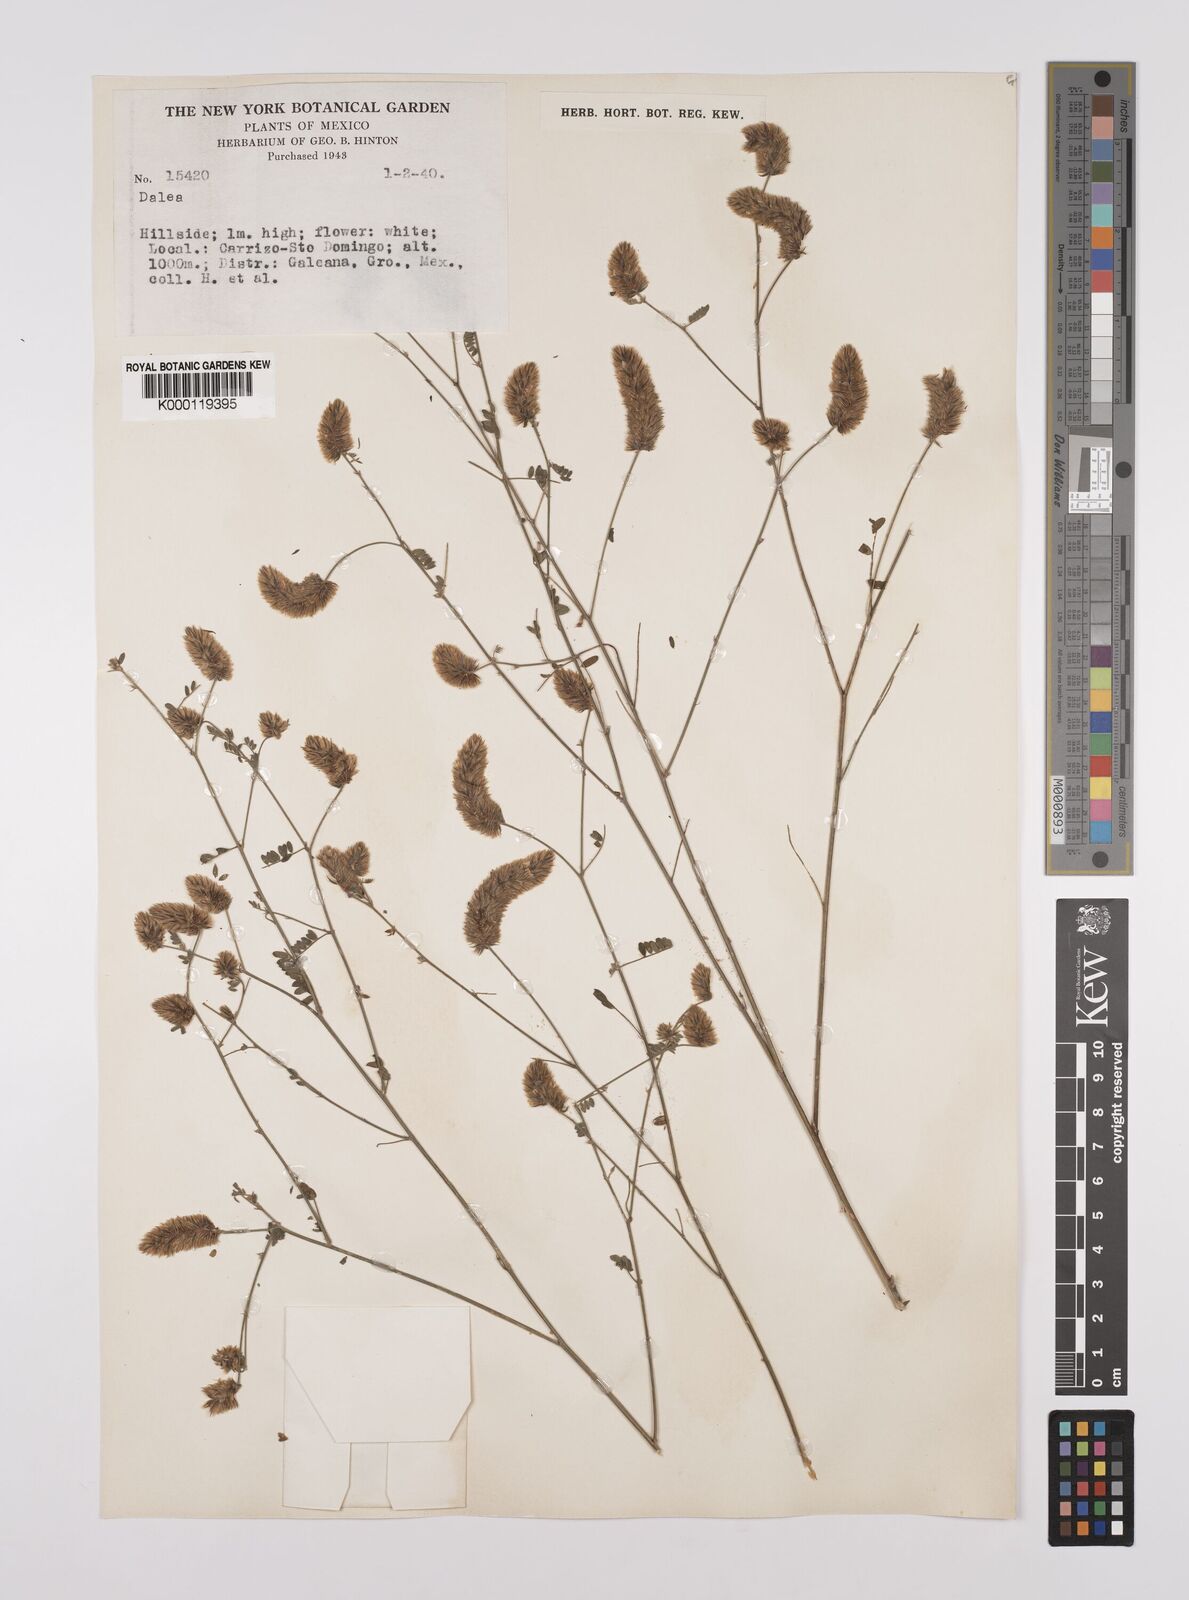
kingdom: Plantae
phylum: Tracheophyta
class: Magnoliopsida
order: Fabales
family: Fabaceae
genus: Dalea
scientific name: Dalea
